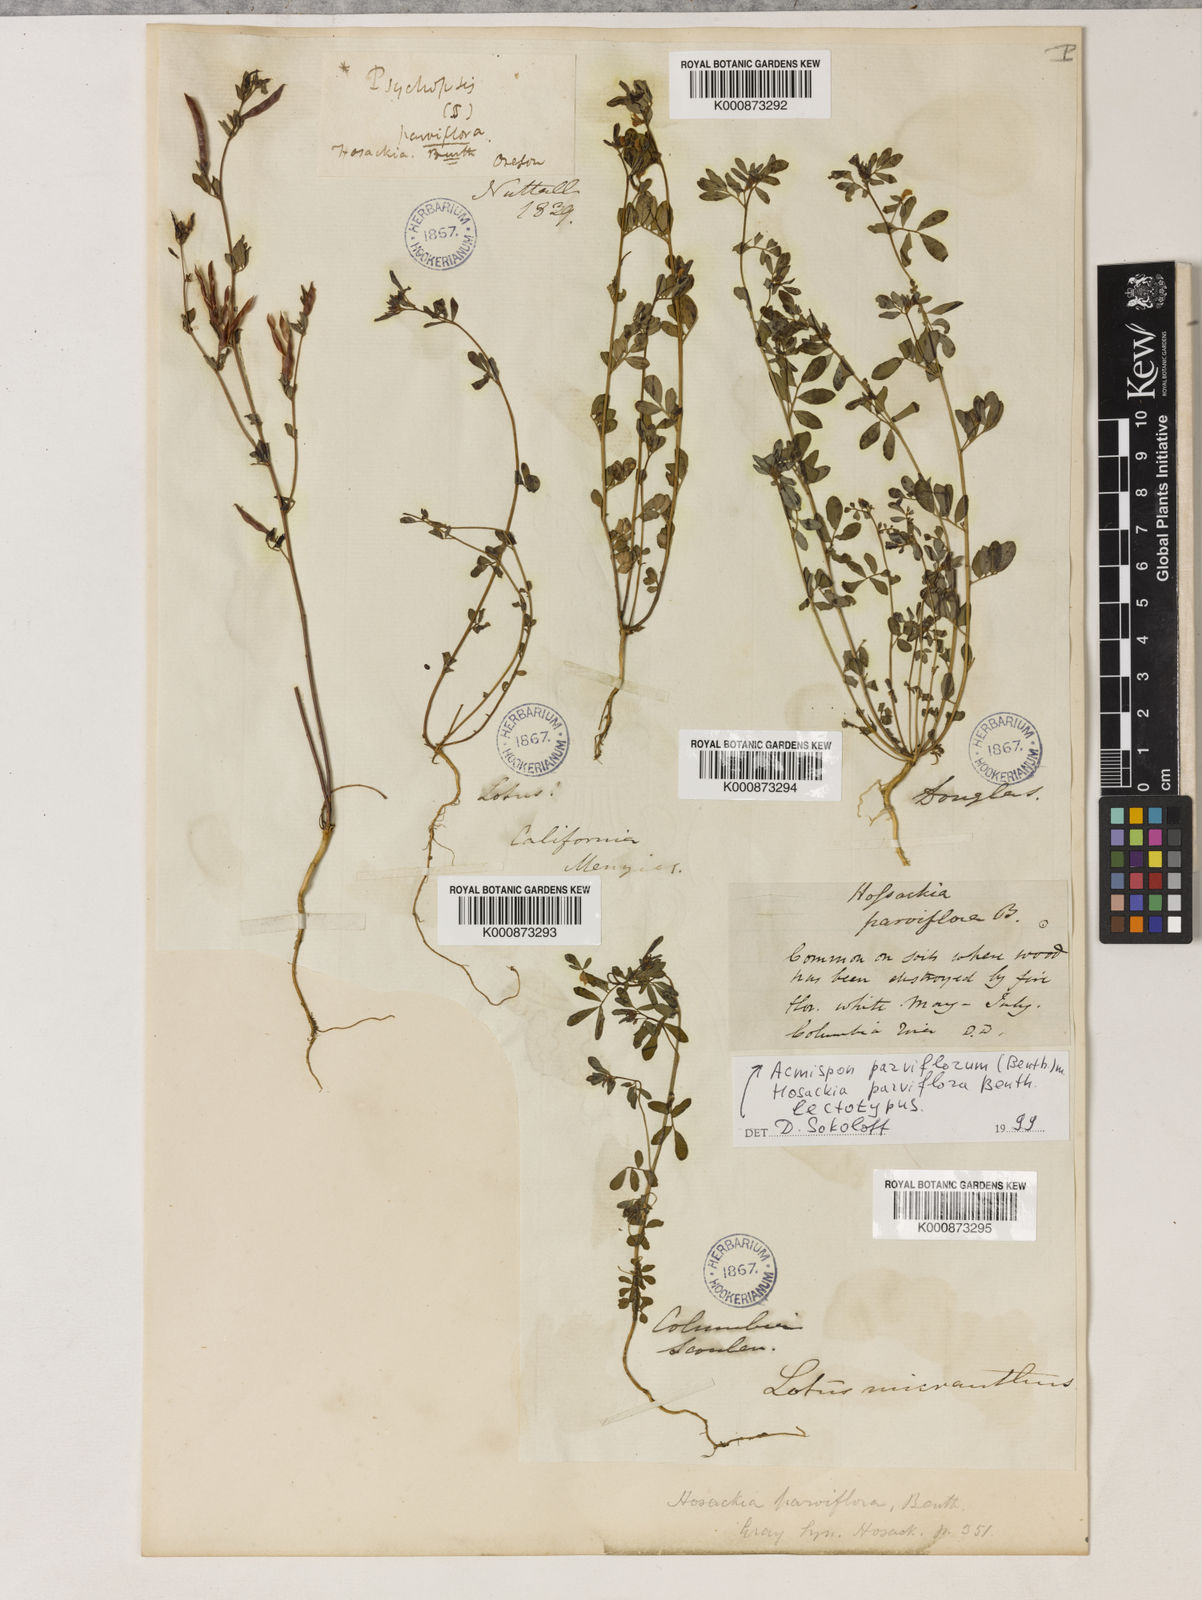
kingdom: Plantae
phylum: Tracheophyta
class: Magnoliopsida
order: Fabales
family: Fabaceae
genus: Acmispon
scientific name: Acmispon parviflorus
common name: Desert deer-vetch
